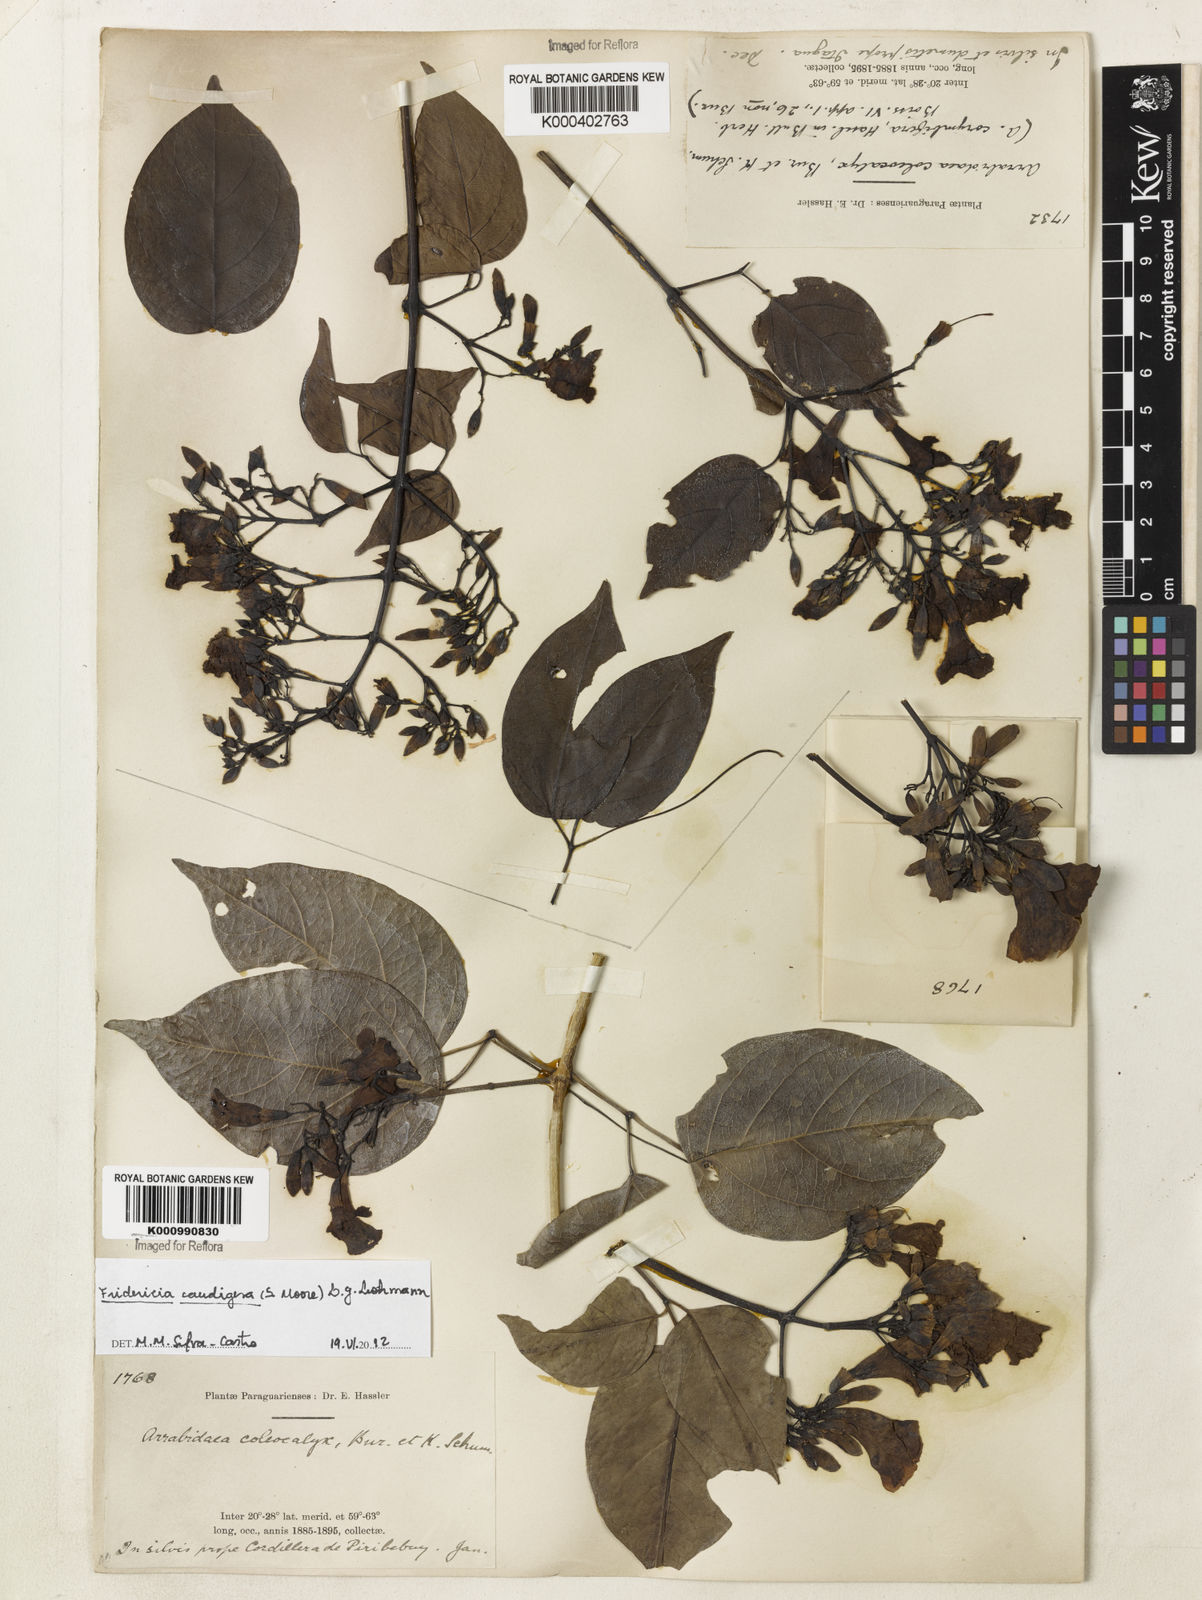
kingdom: Plantae
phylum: Tracheophyta
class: Magnoliopsida
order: Lamiales
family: Bignoniaceae
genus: Fridericia
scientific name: Fridericia caudigera
